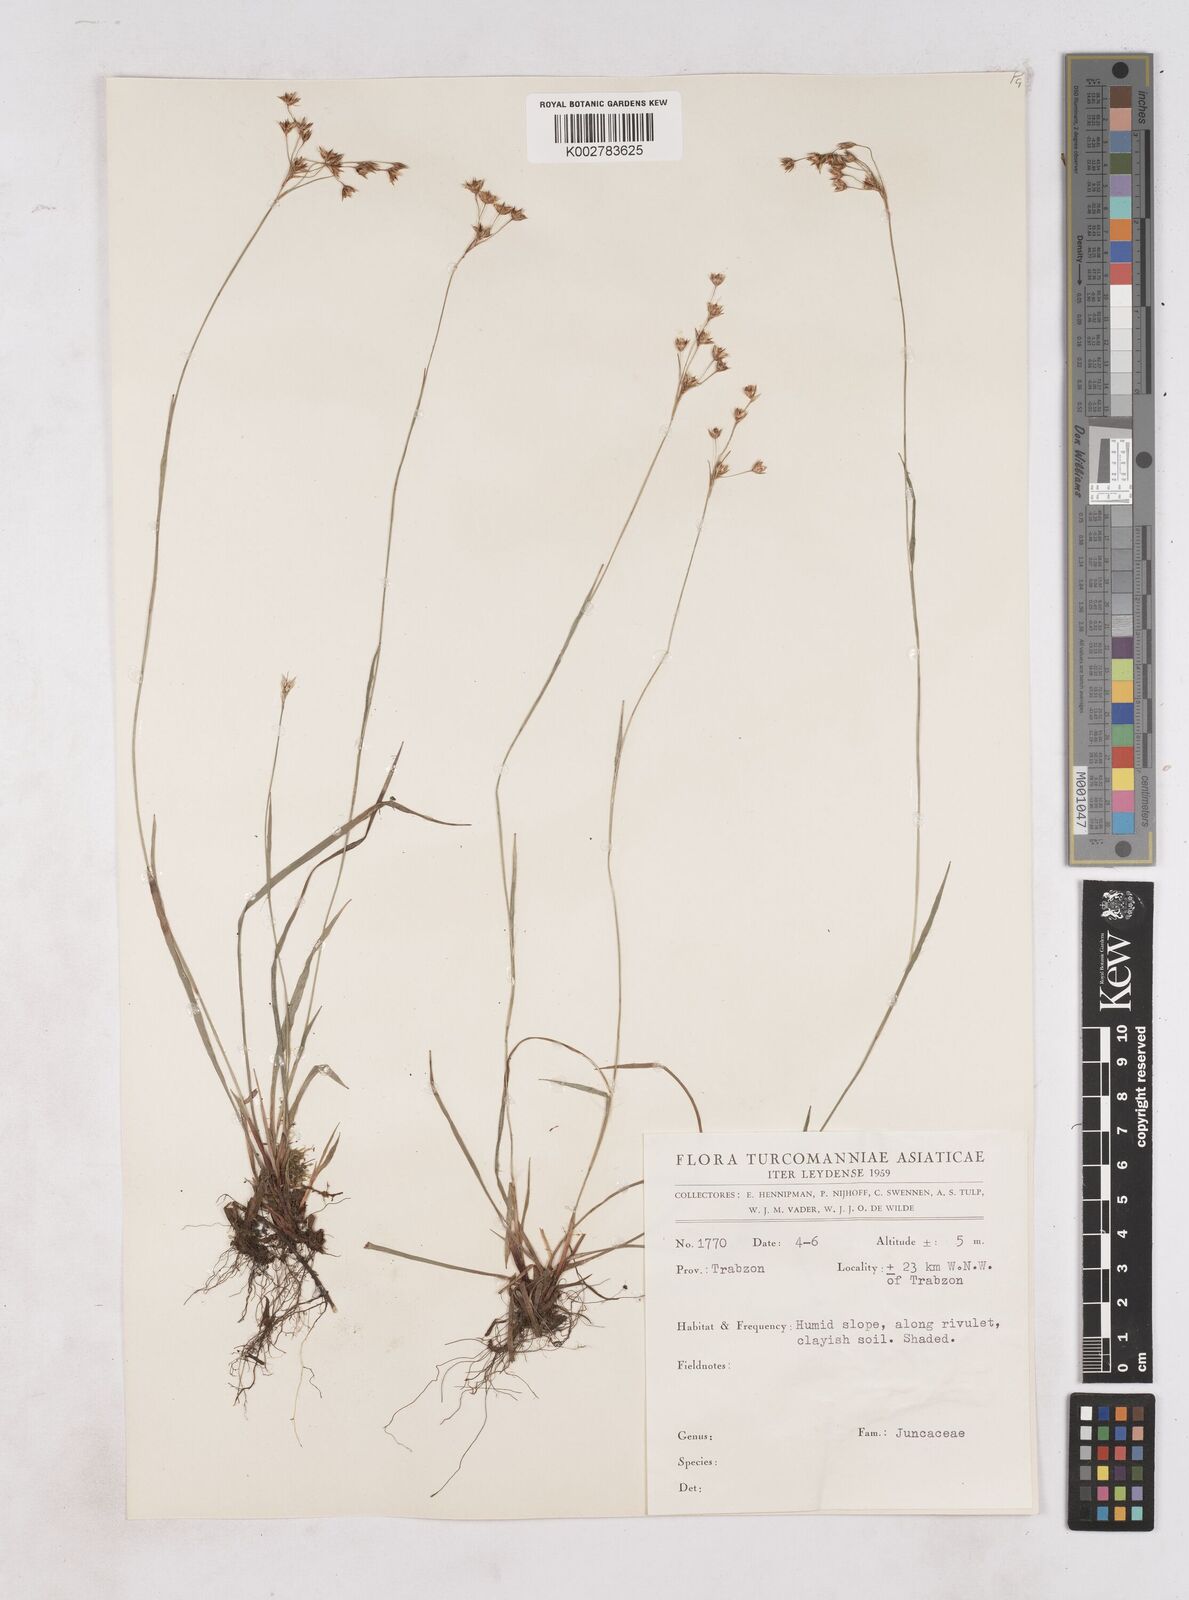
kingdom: Plantae
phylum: Tracheophyta
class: Liliopsida
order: Poales
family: Juncaceae
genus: Luzula
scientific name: Luzula forsteri
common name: Southern wood-rush
